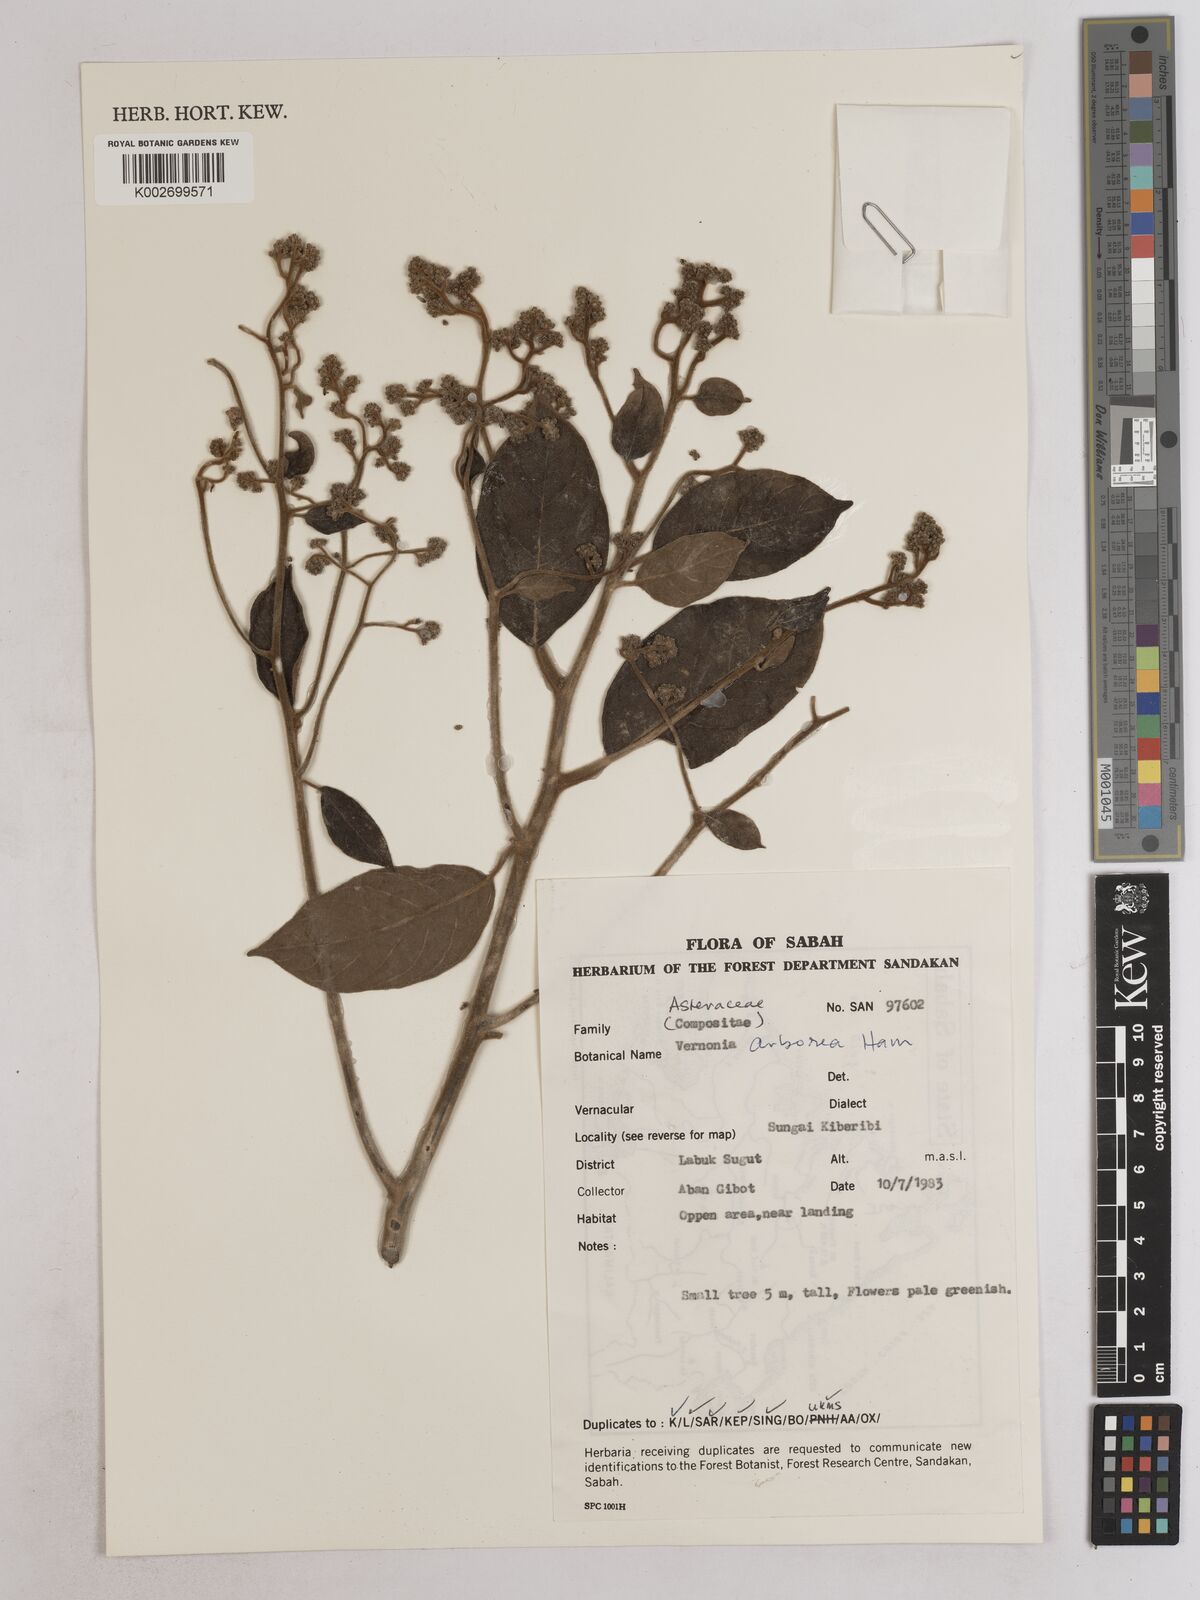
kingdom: Plantae
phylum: Tracheophyta
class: Magnoliopsida
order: Asterales
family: Asteraceae
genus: Strobocalyx
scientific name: Strobocalyx arborea
